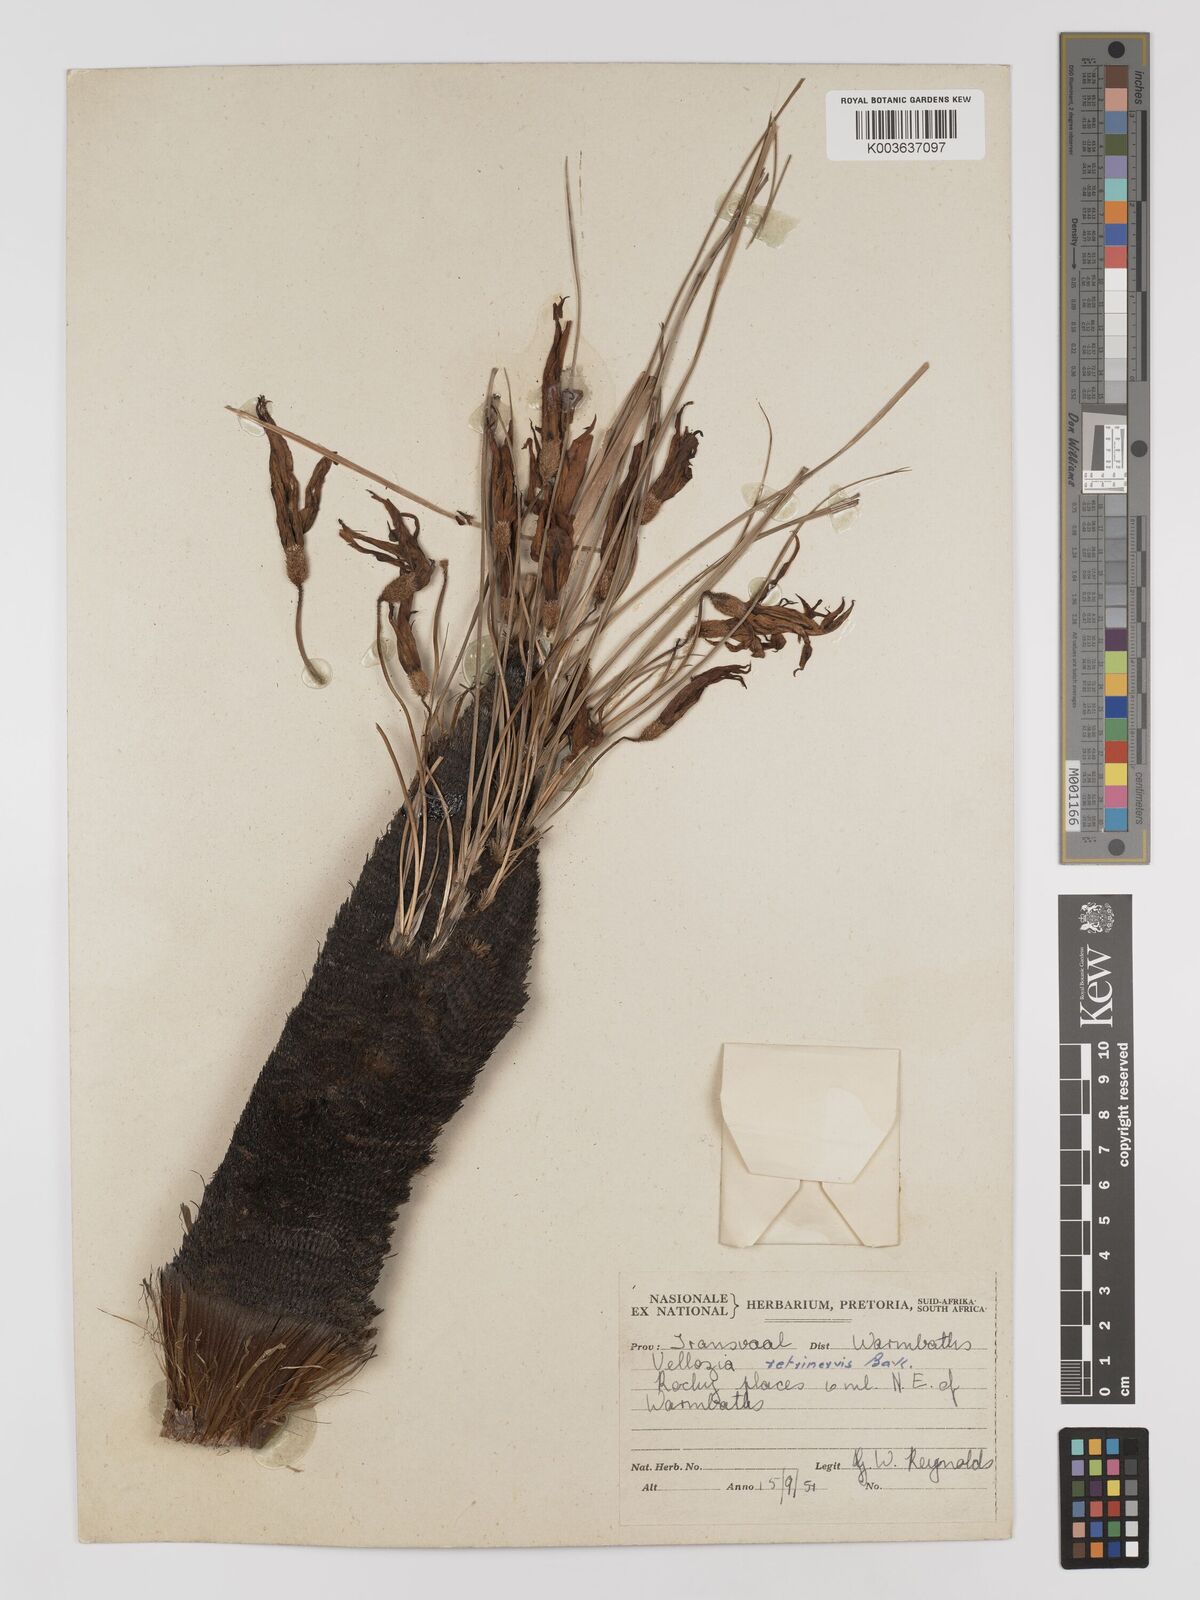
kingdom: Plantae
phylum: Tracheophyta
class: Liliopsida
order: Pandanales
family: Velloziaceae
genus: Xerophyta
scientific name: Xerophyta retinervis
